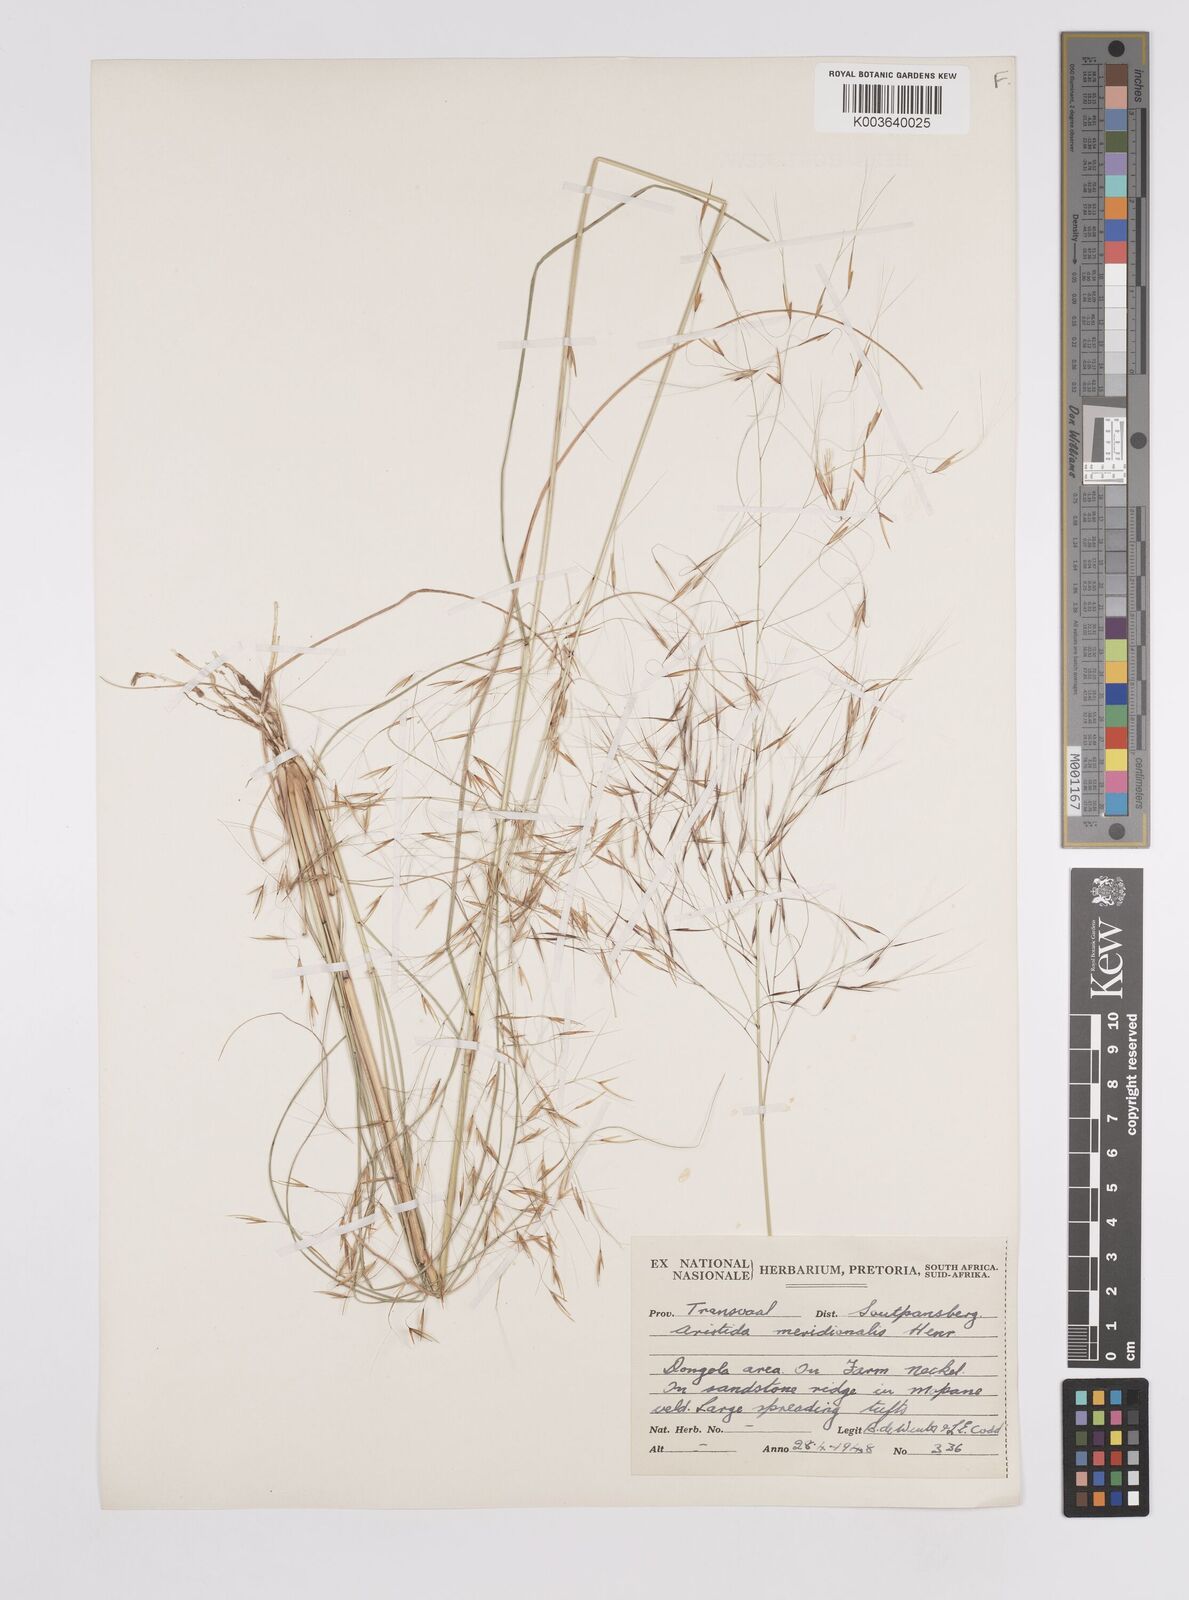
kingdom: Plantae
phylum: Tracheophyta
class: Liliopsida
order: Poales
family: Poaceae
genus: Aristida
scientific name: Aristida meridionalis
